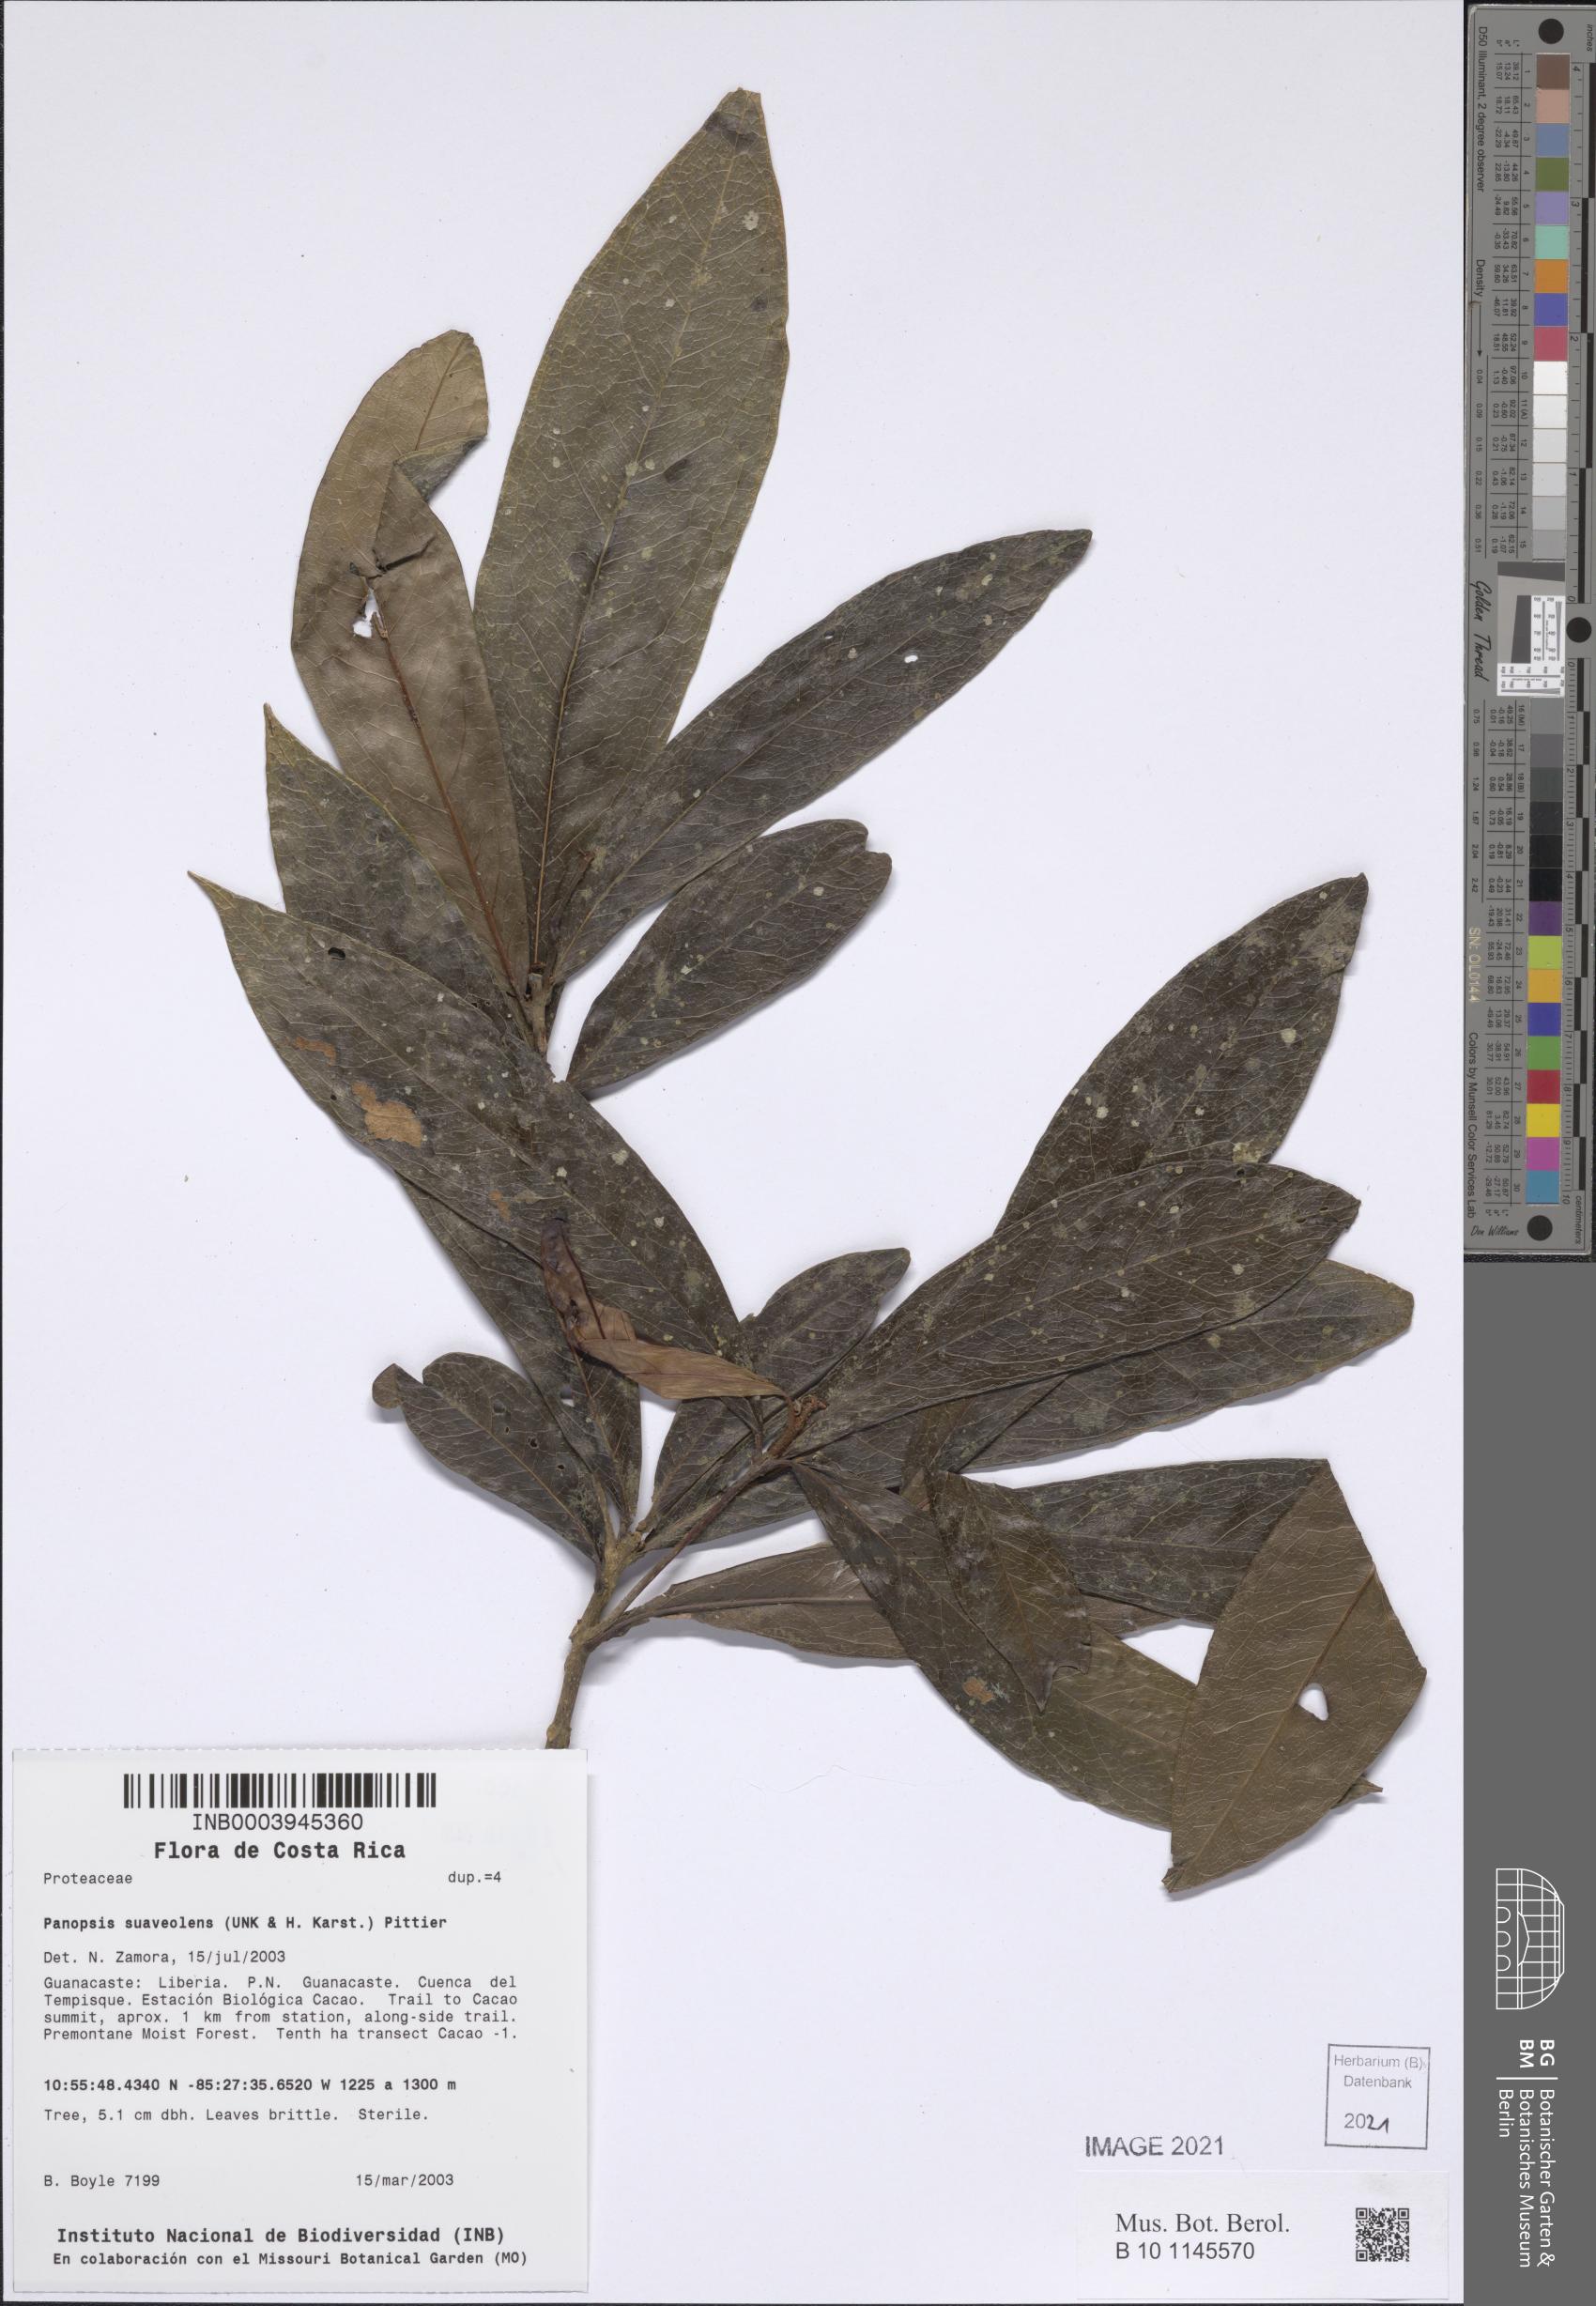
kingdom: Plantae
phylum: Tracheophyta
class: Magnoliopsida
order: Proteales
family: Proteaceae
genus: Panopsis
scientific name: Panopsis costaricensis
